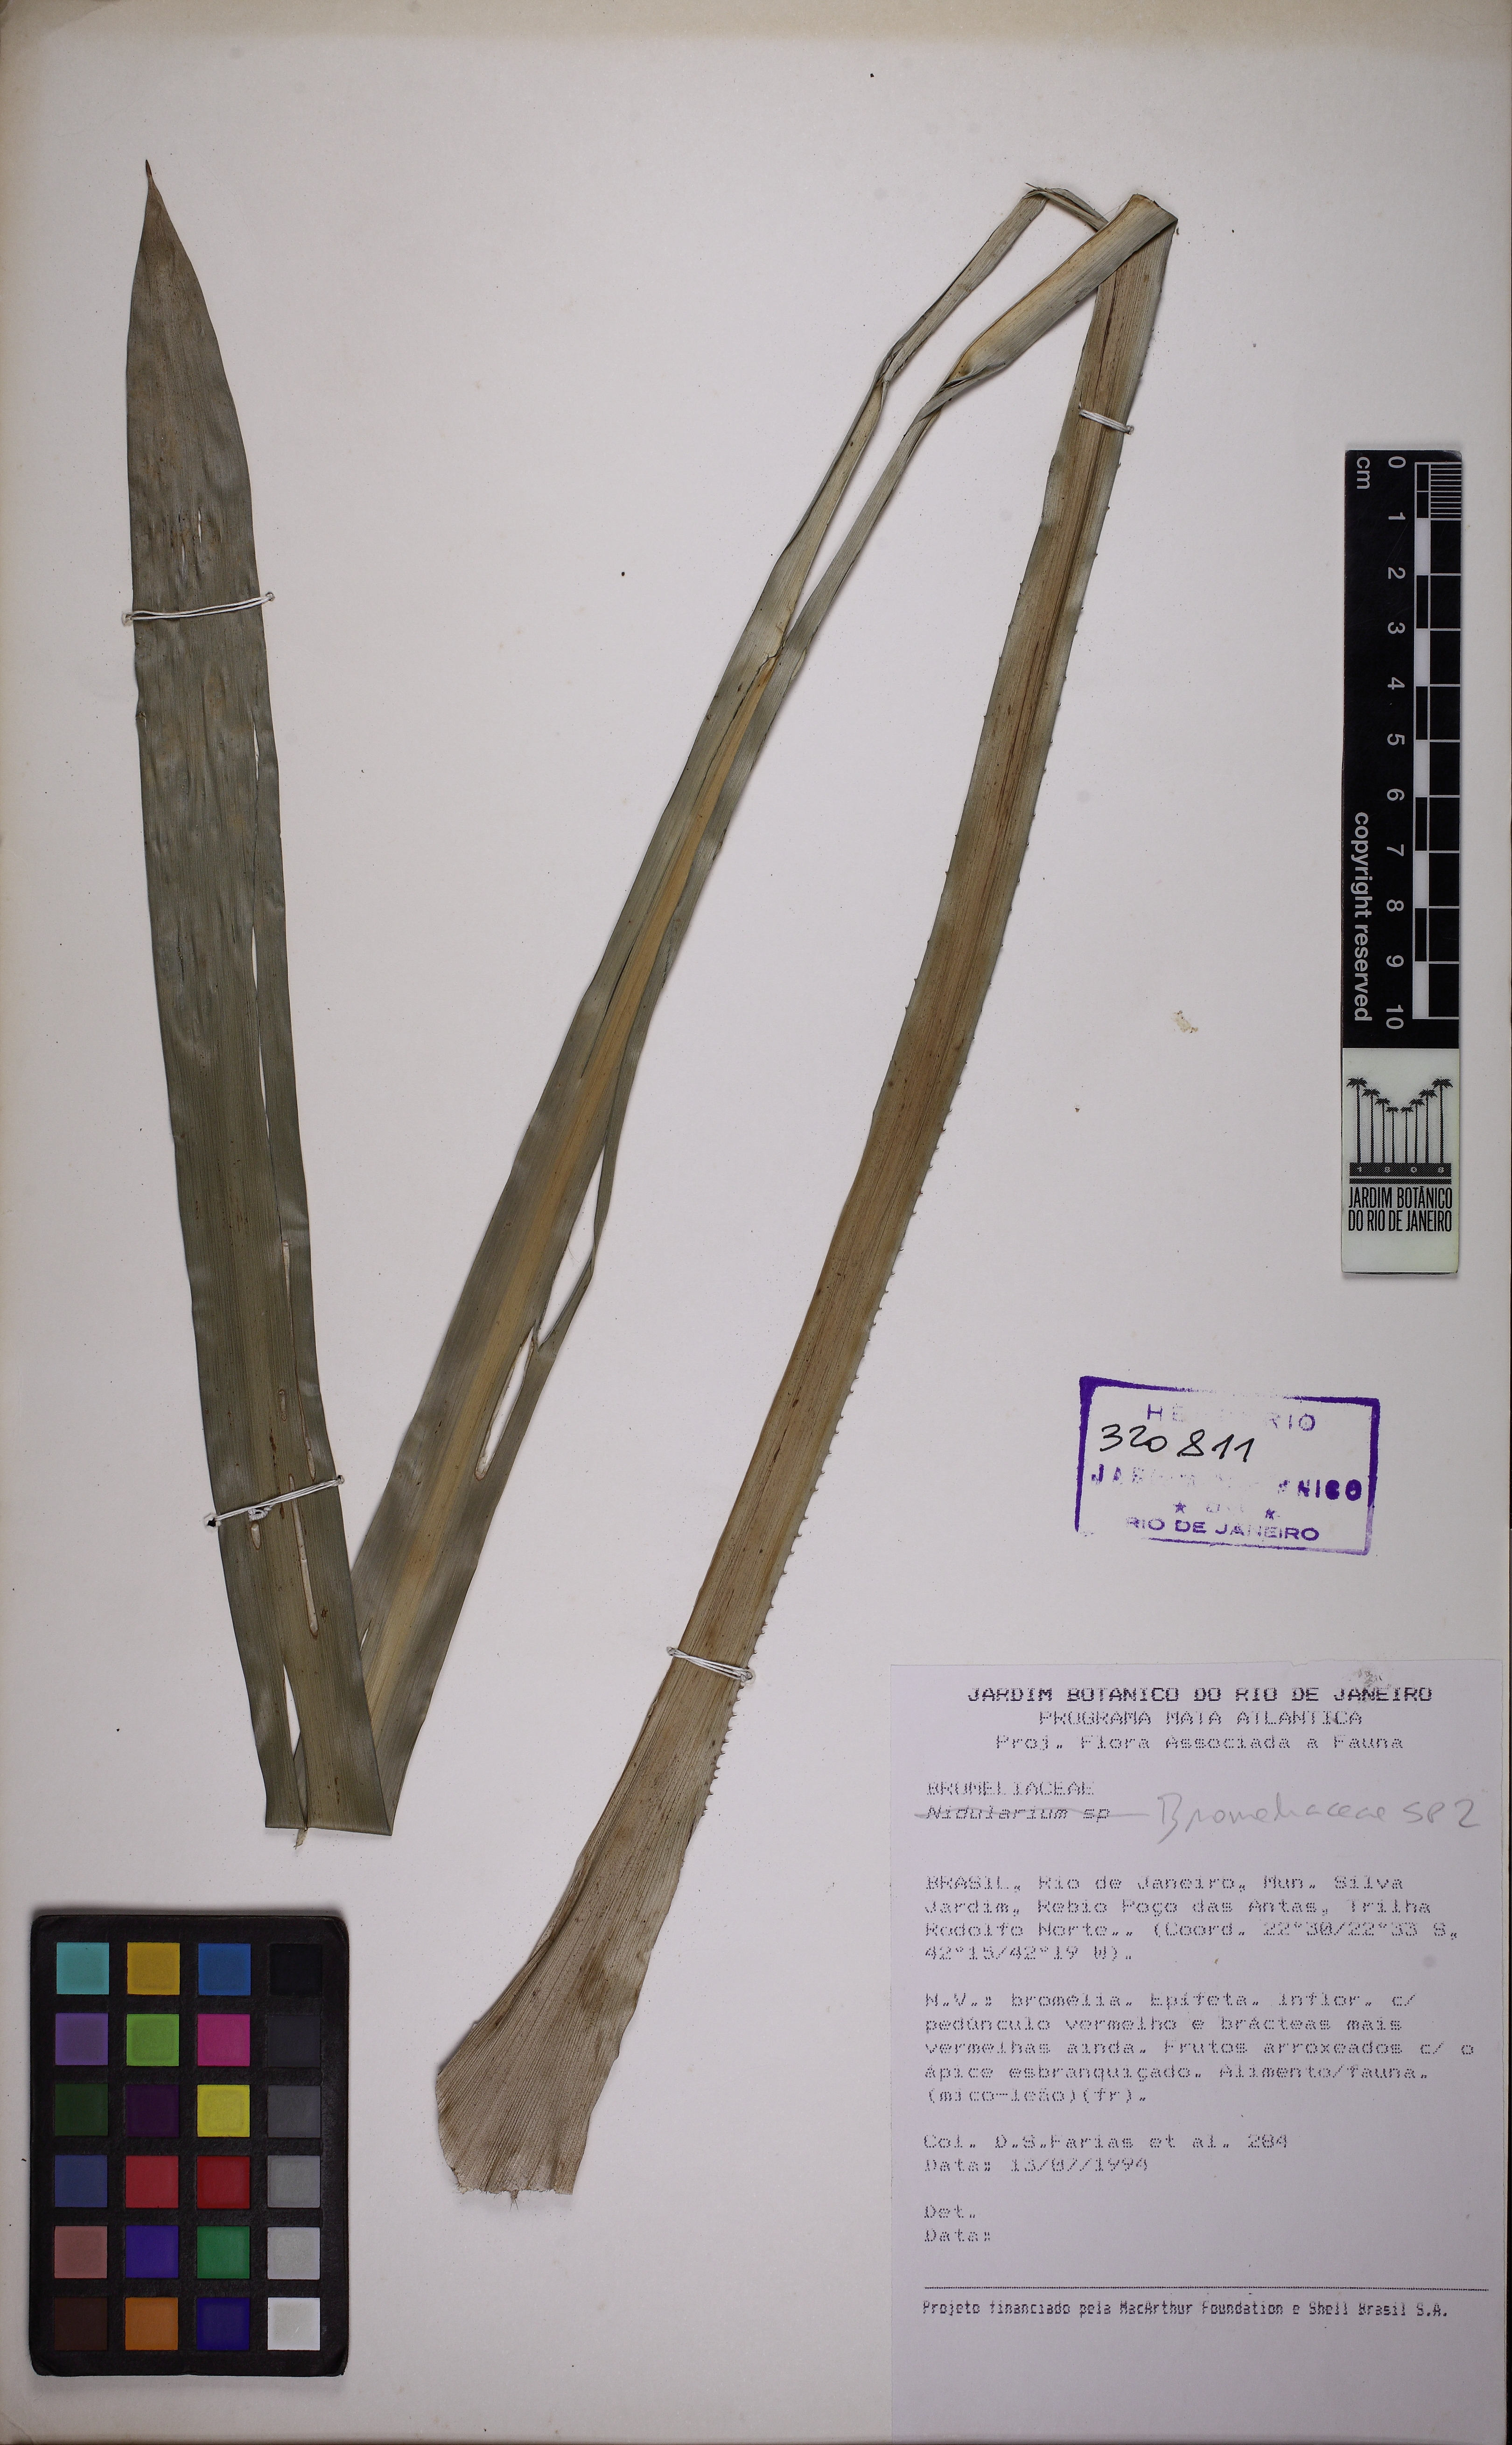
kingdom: Plantae
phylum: Tracheophyta
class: Liliopsida
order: Poales
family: Bromeliaceae
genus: Aechmea
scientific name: Aechmea weilbachii
